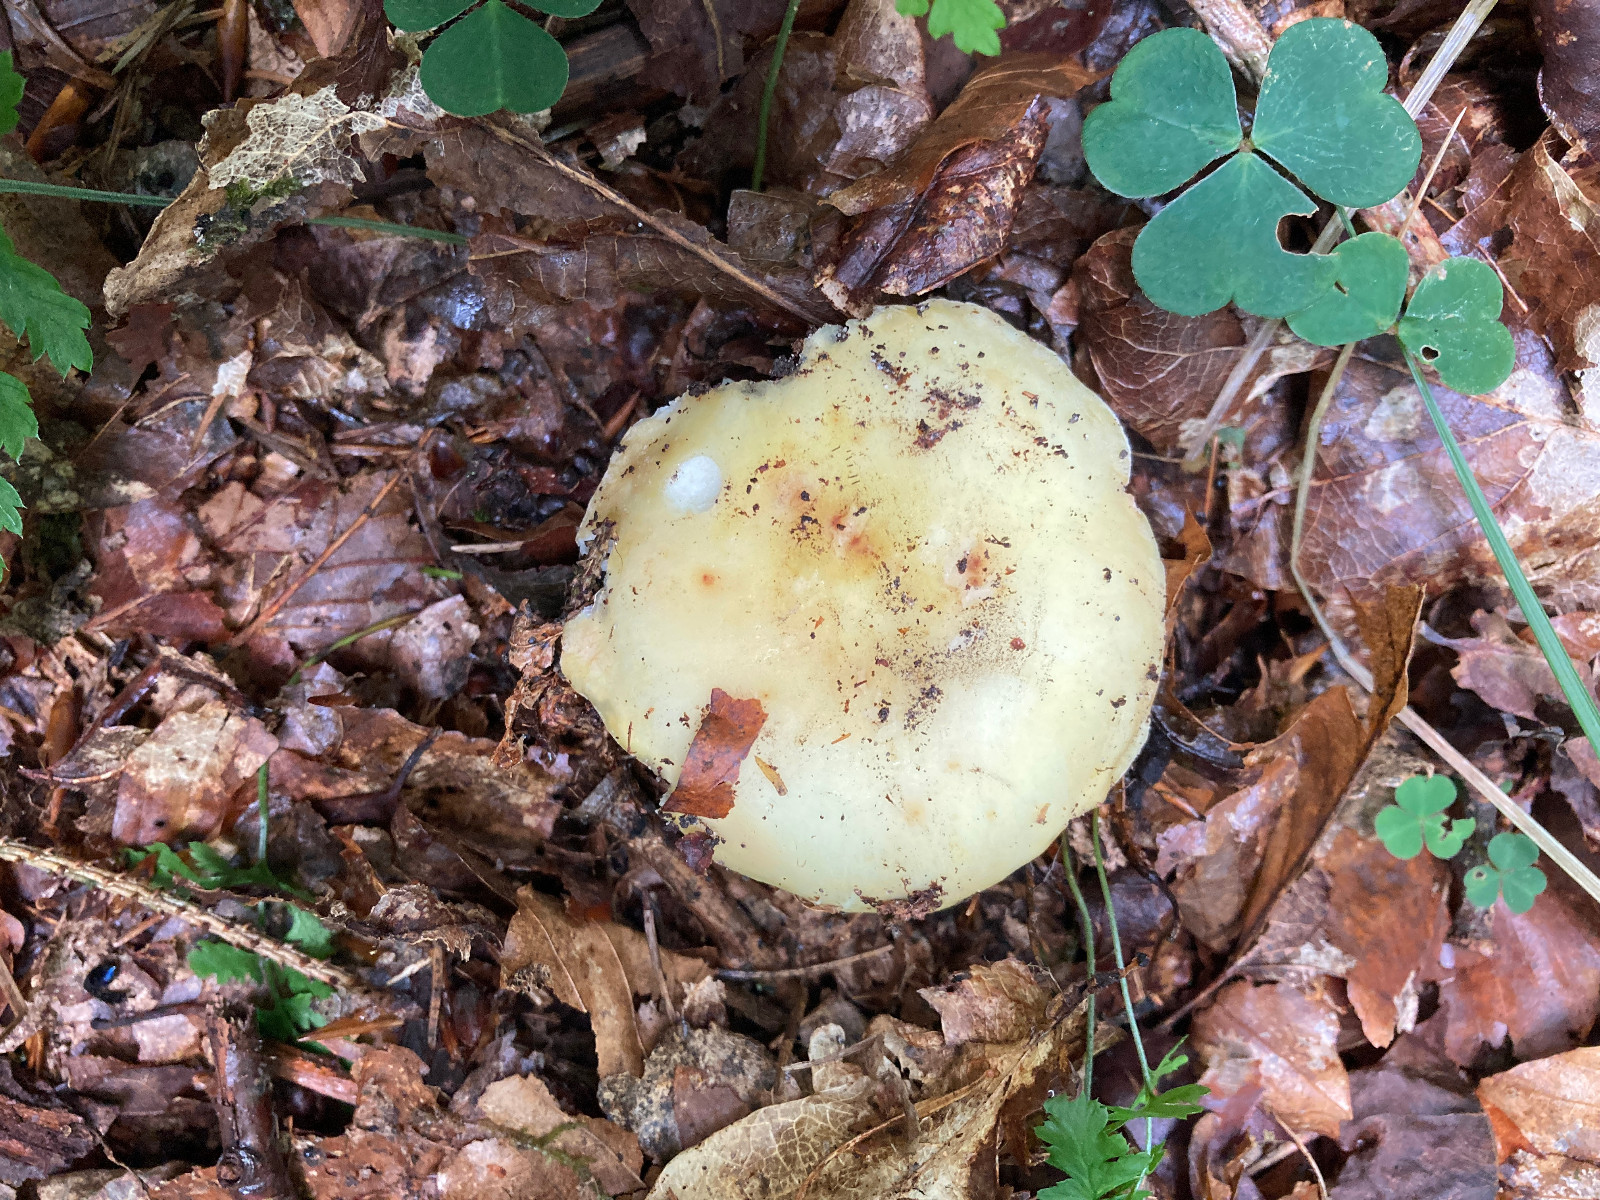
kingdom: Fungi
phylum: Basidiomycota
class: Agaricomycetes
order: Russulales
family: Russulaceae
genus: Russula
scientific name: Russula violeipes
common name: ferskengul skørhat
